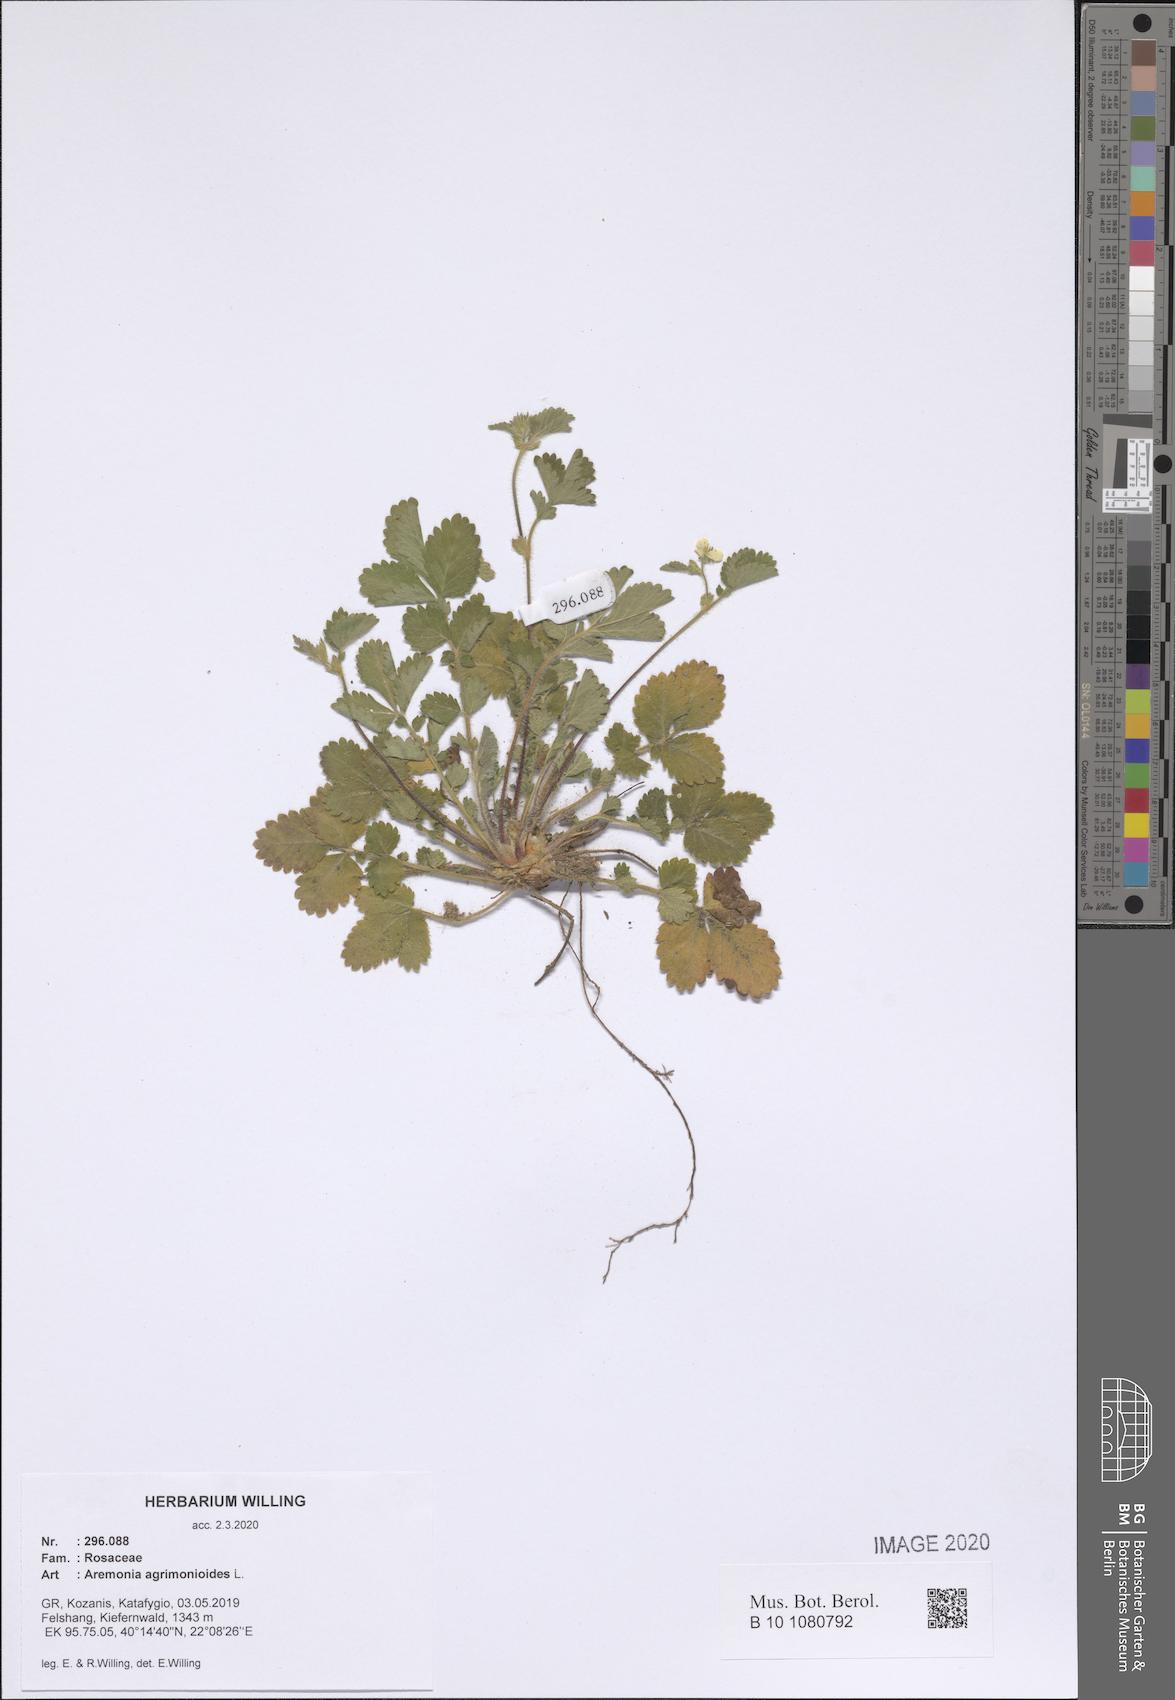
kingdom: Plantae
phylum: Tracheophyta
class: Magnoliopsida
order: Rosales
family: Rosaceae
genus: Aremonia
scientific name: Aremonia agrimonioides
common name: Bastard agrimony
